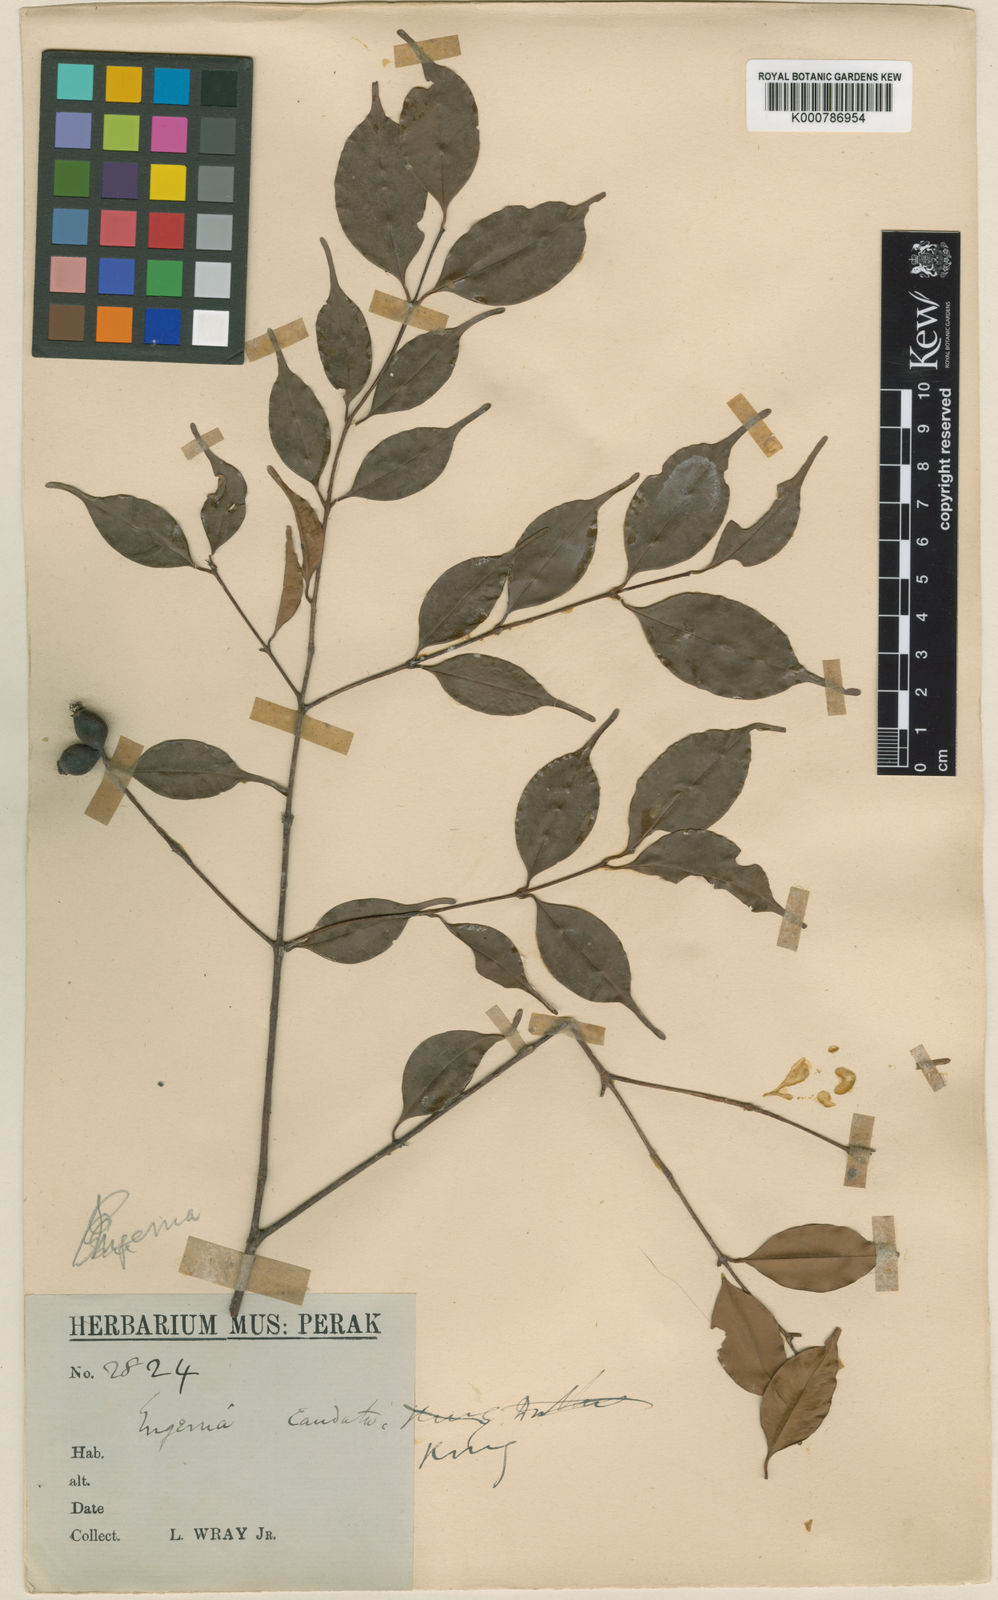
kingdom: Plantae
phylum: Tracheophyta
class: Magnoliopsida
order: Myrtales
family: Myrtaceae
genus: Syzygium
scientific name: Syzygium urophyllum
